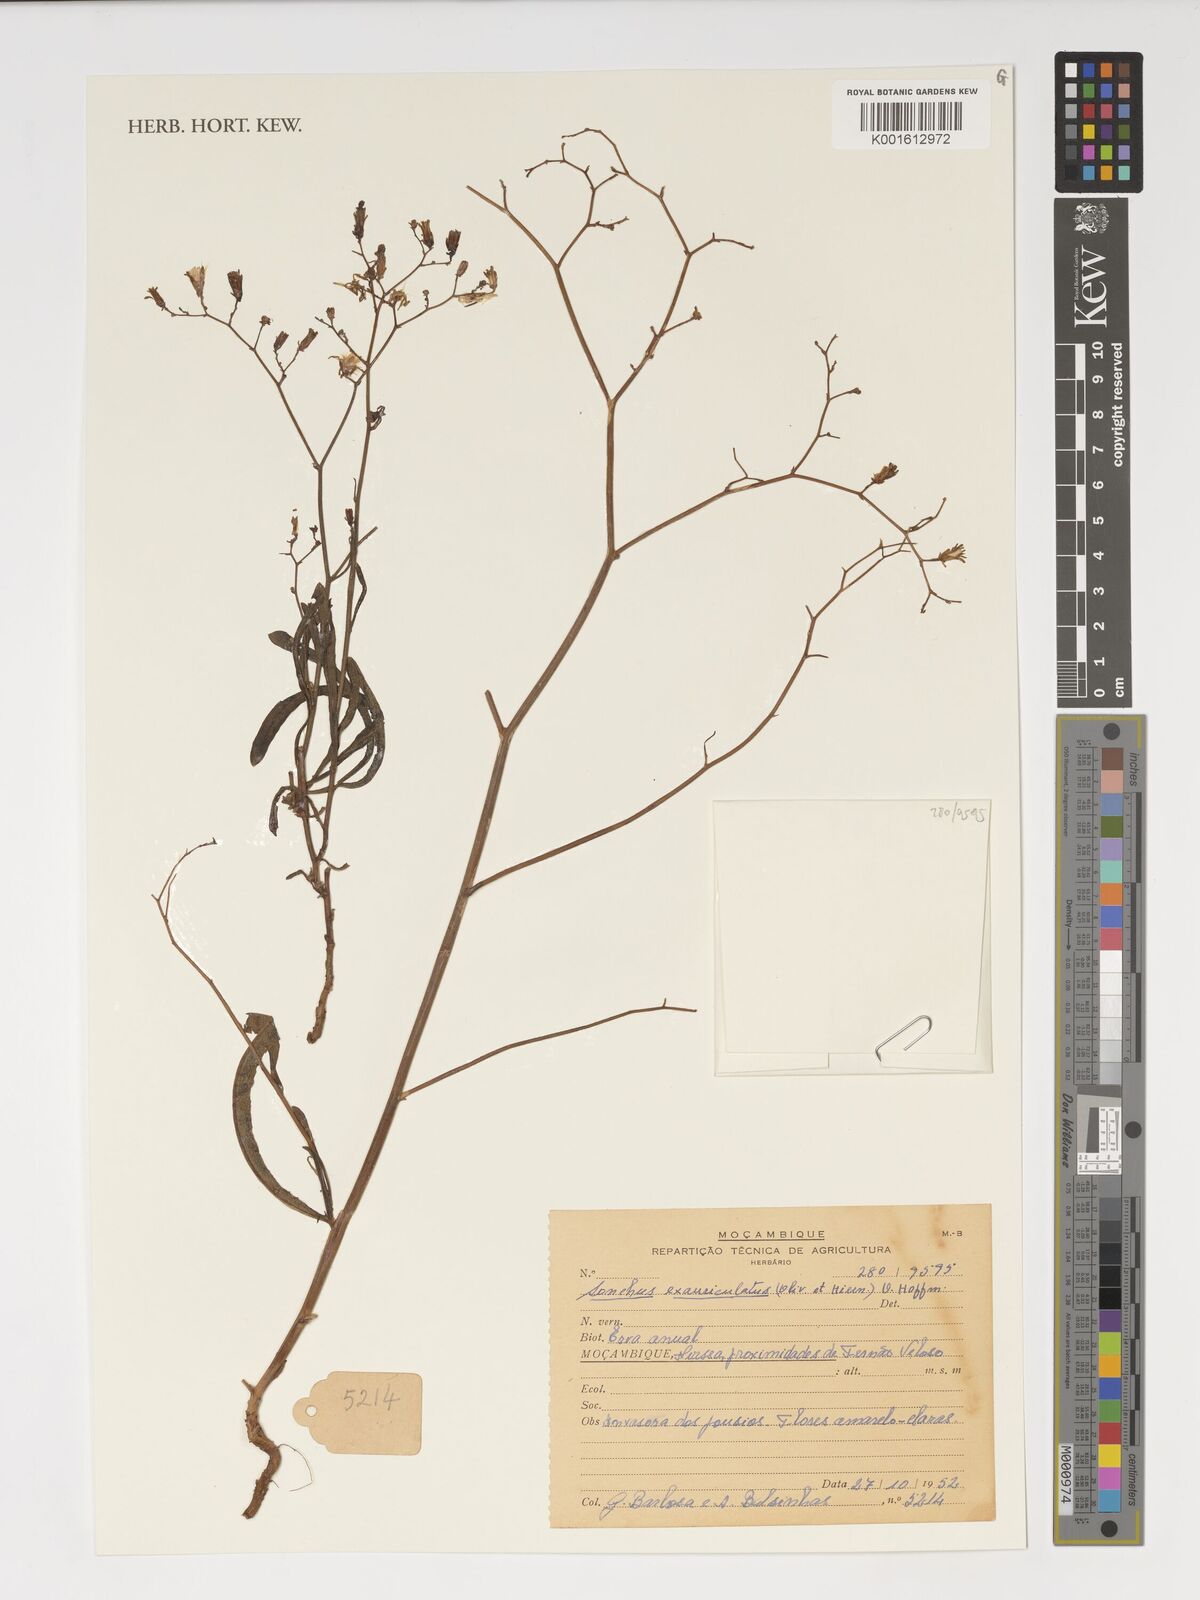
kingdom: Plantae
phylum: Tracheophyta
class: Magnoliopsida
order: Asterales
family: Asteraceae
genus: Launaea
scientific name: Launaea cornuta
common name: Bitter-lettuce
